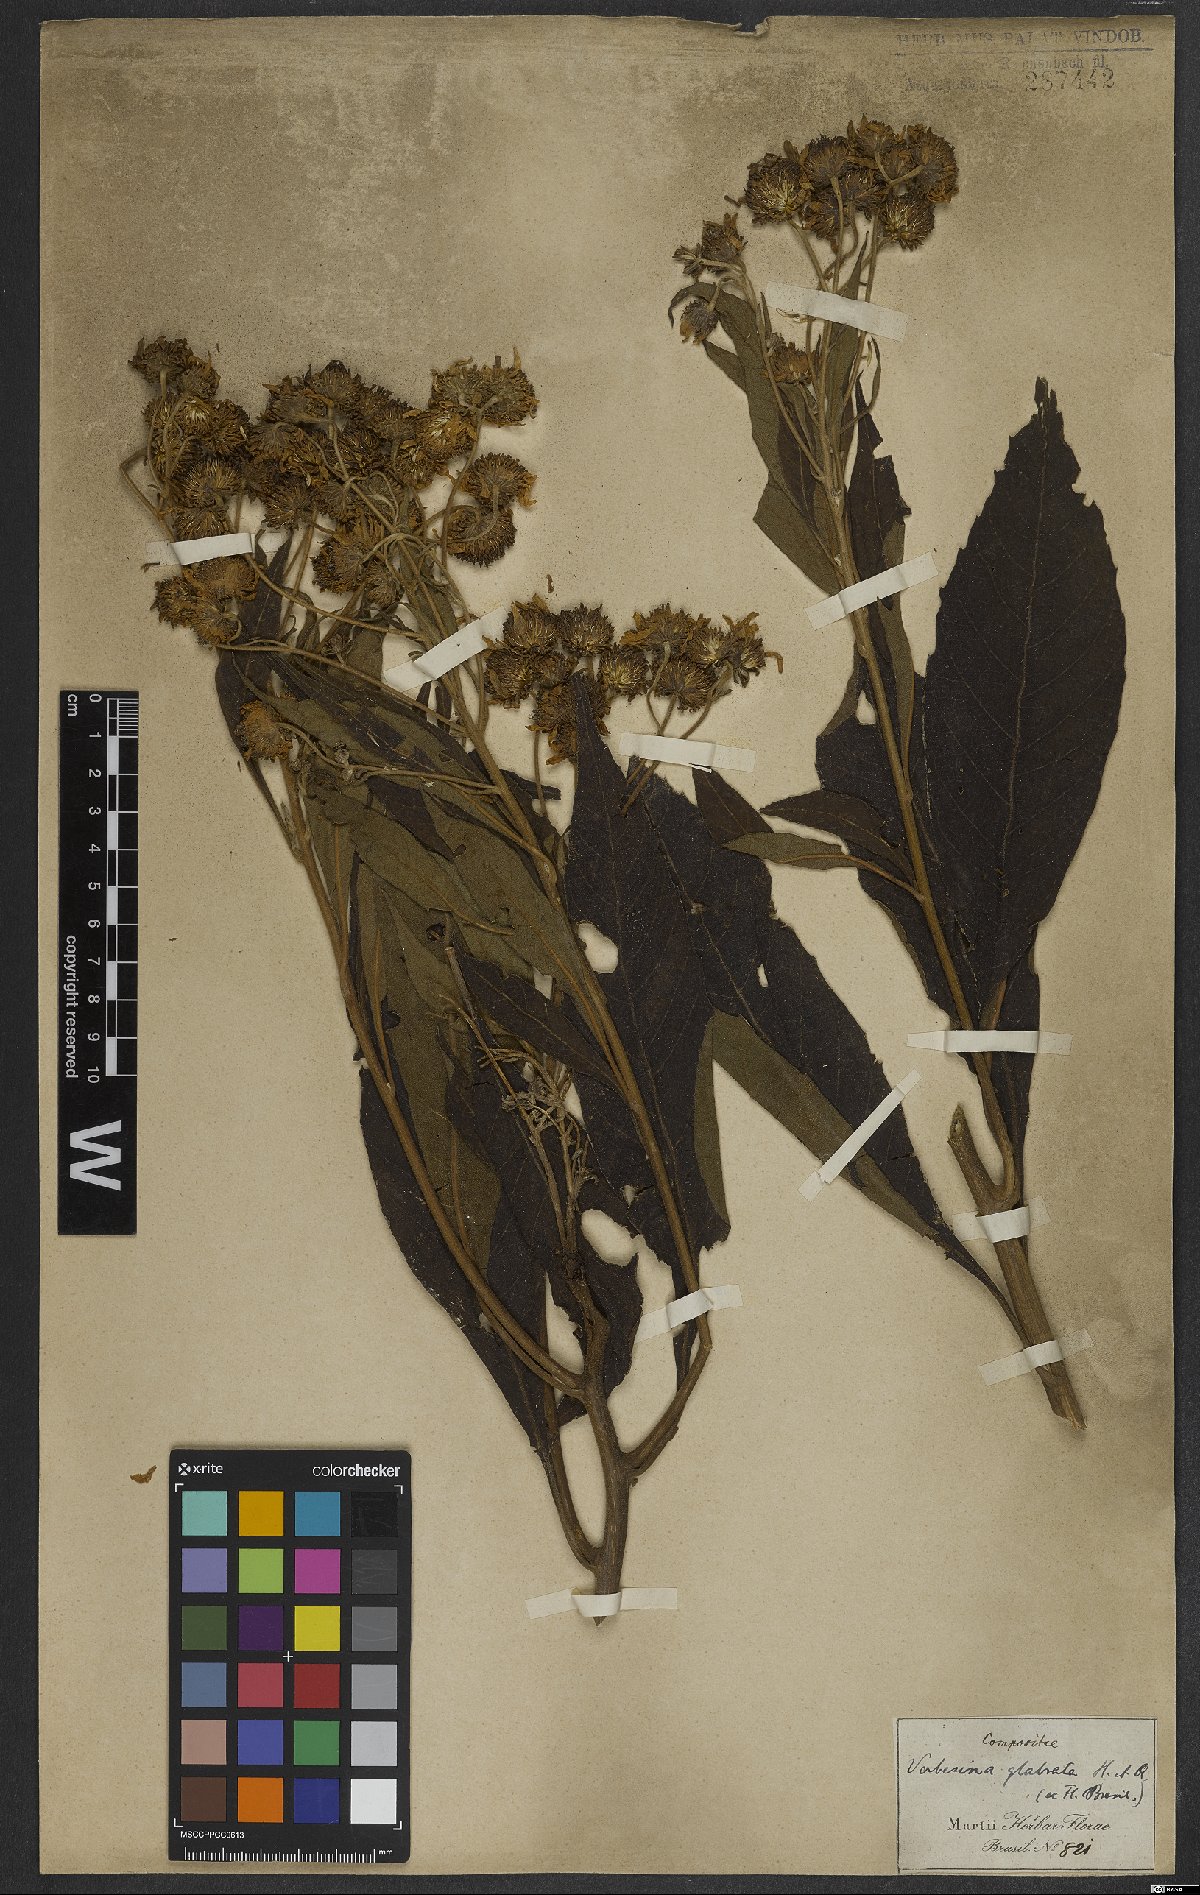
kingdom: Plantae
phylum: Tracheophyta
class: Magnoliopsida
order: Asterales
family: Asteraceae
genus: Lessingianthus
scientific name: Lessingianthus glabratus
